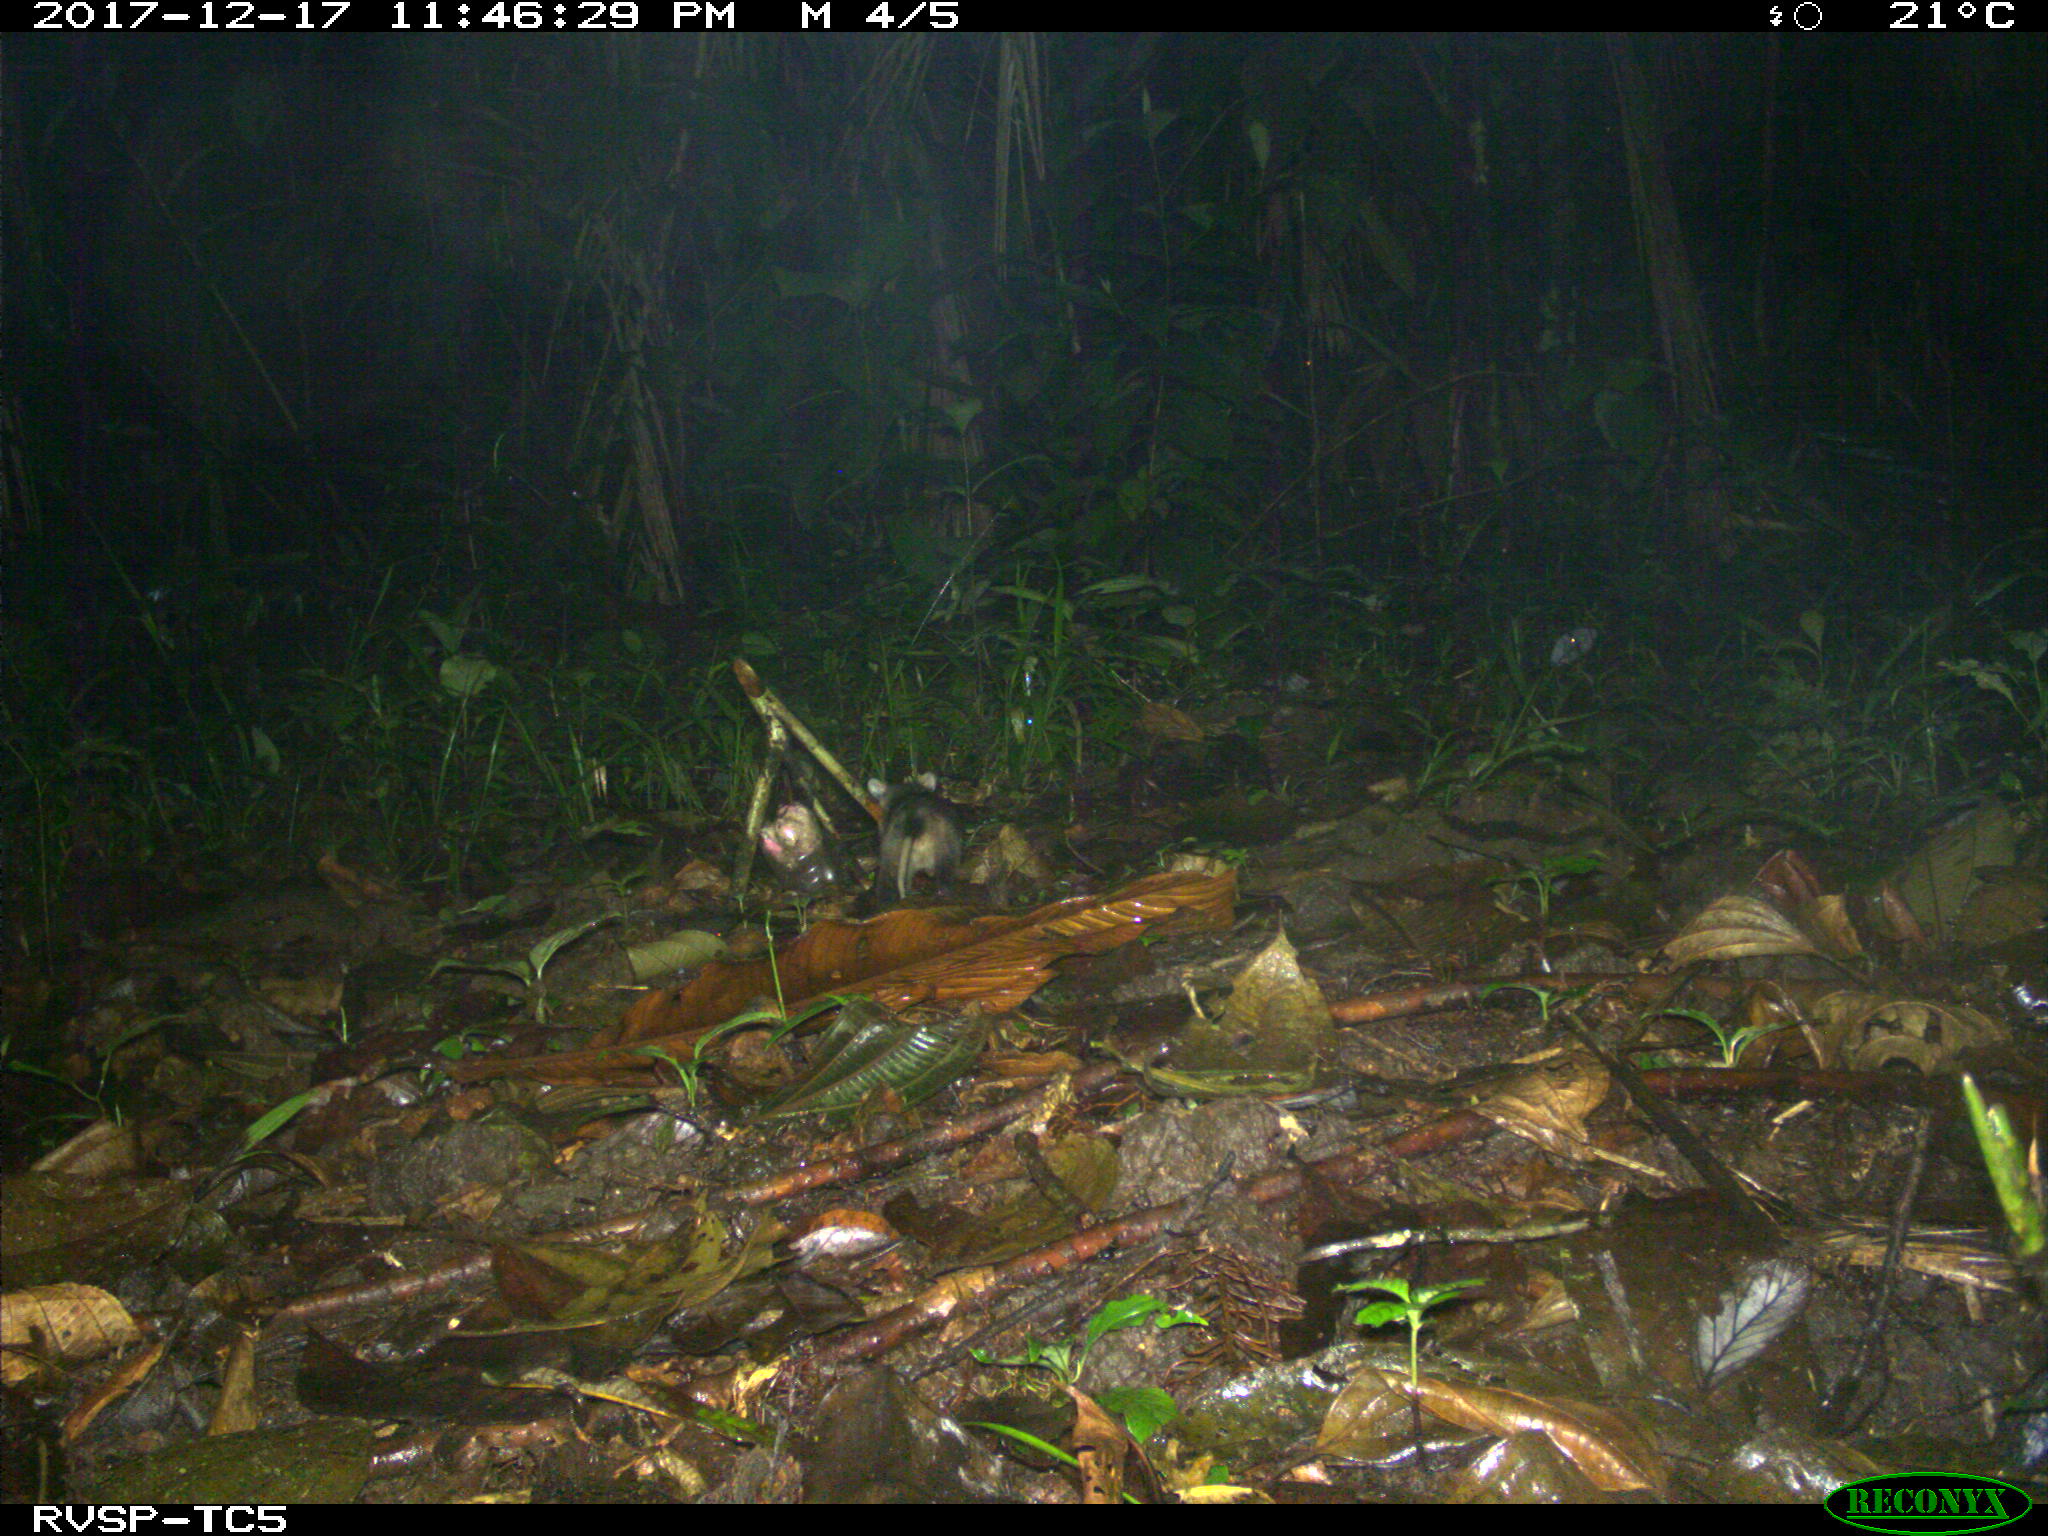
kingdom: Animalia
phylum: Chordata
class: Mammalia
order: Didelphimorphia
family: Didelphidae
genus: Didelphis
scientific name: Didelphis marsupialis
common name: Common opossum
